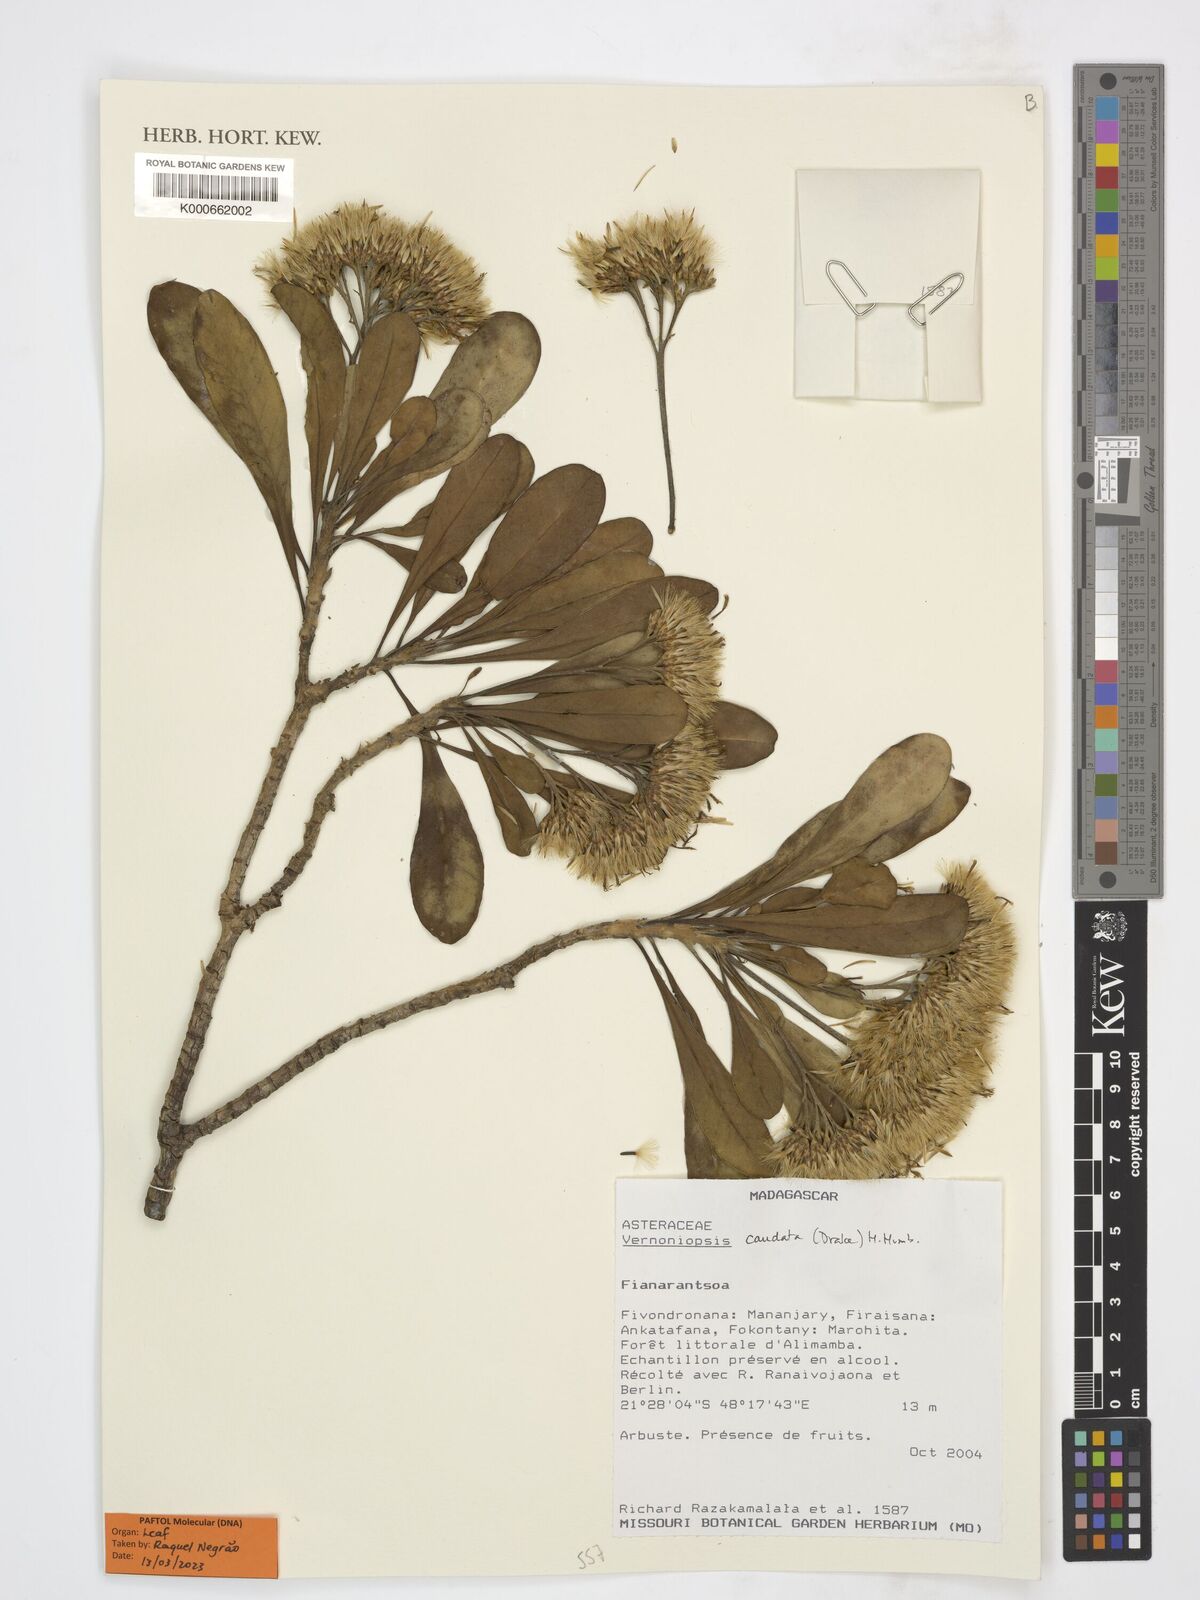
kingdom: Plantae
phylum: Tracheophyta
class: Magnoliopsida
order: Asterales
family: Asteraceae
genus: Vernoniopsis
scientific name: Vernoniopsis caudata
